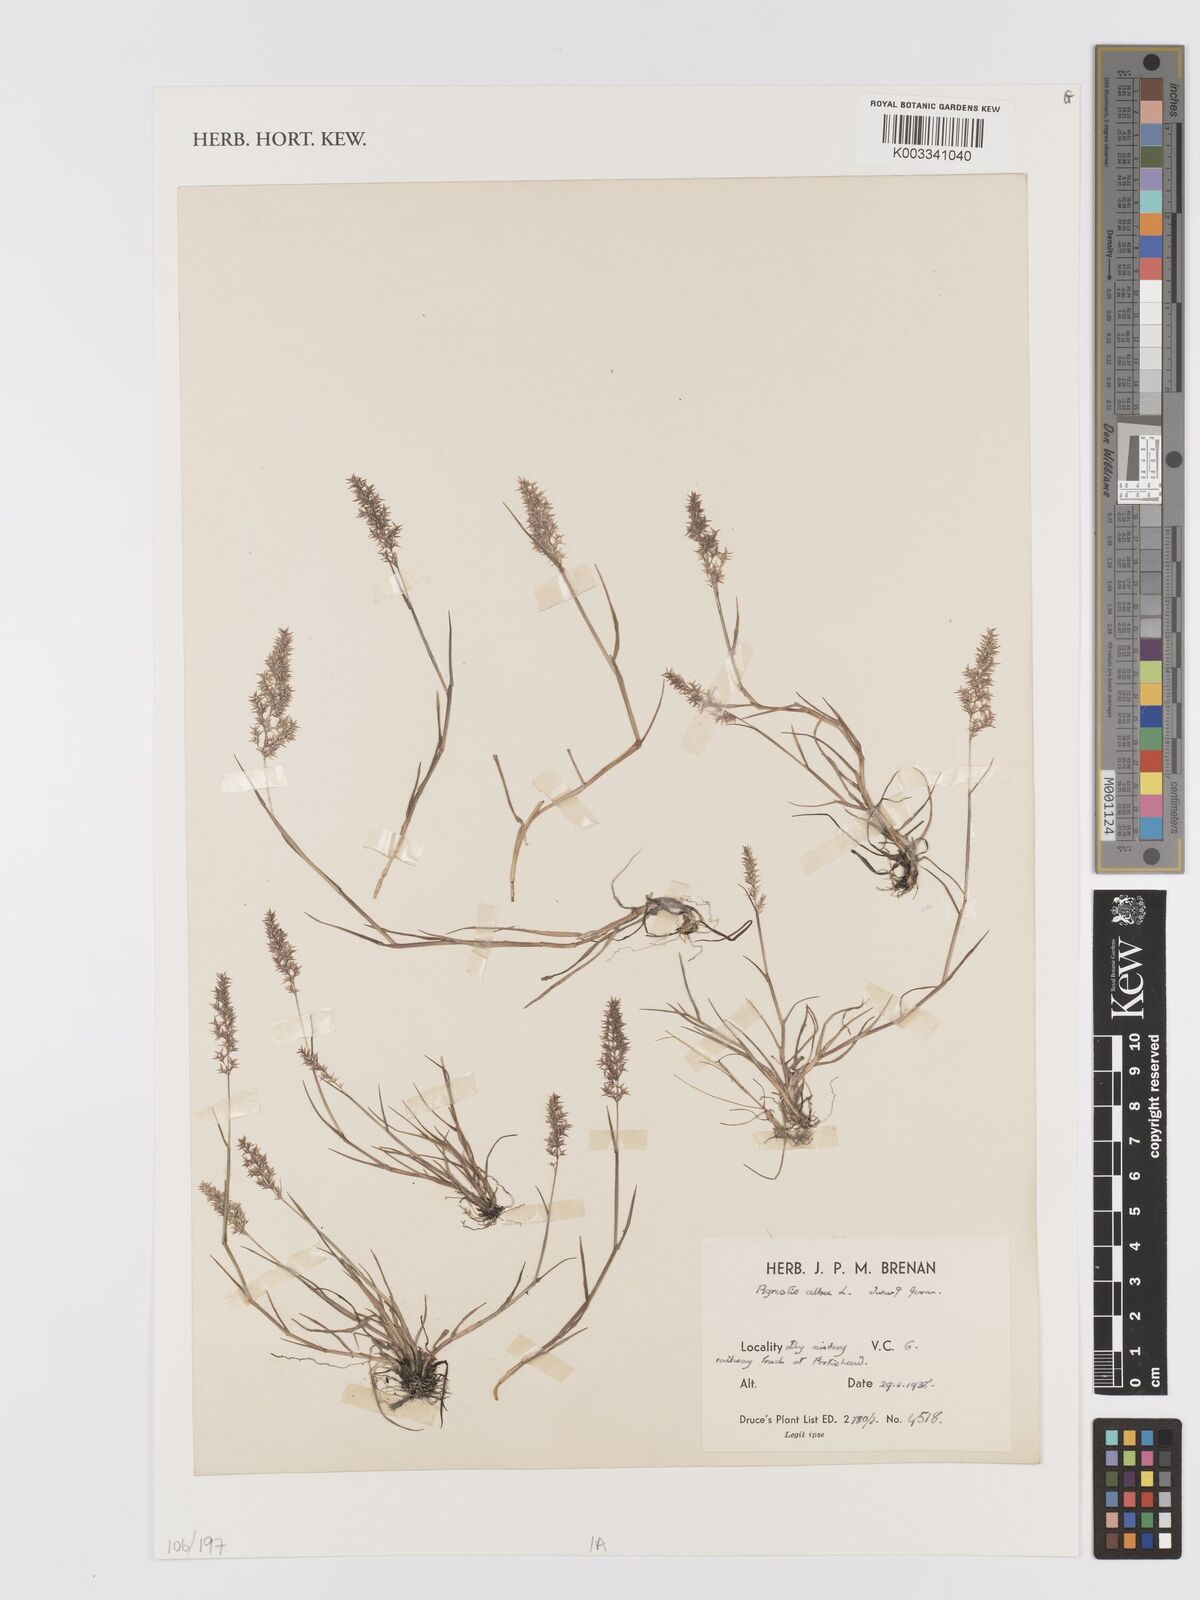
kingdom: Plantae
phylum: Tracheophyta
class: Liliopsida
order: Poales
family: Poaceae
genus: Agrostis
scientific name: Agrostis gigantea
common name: Black bent
